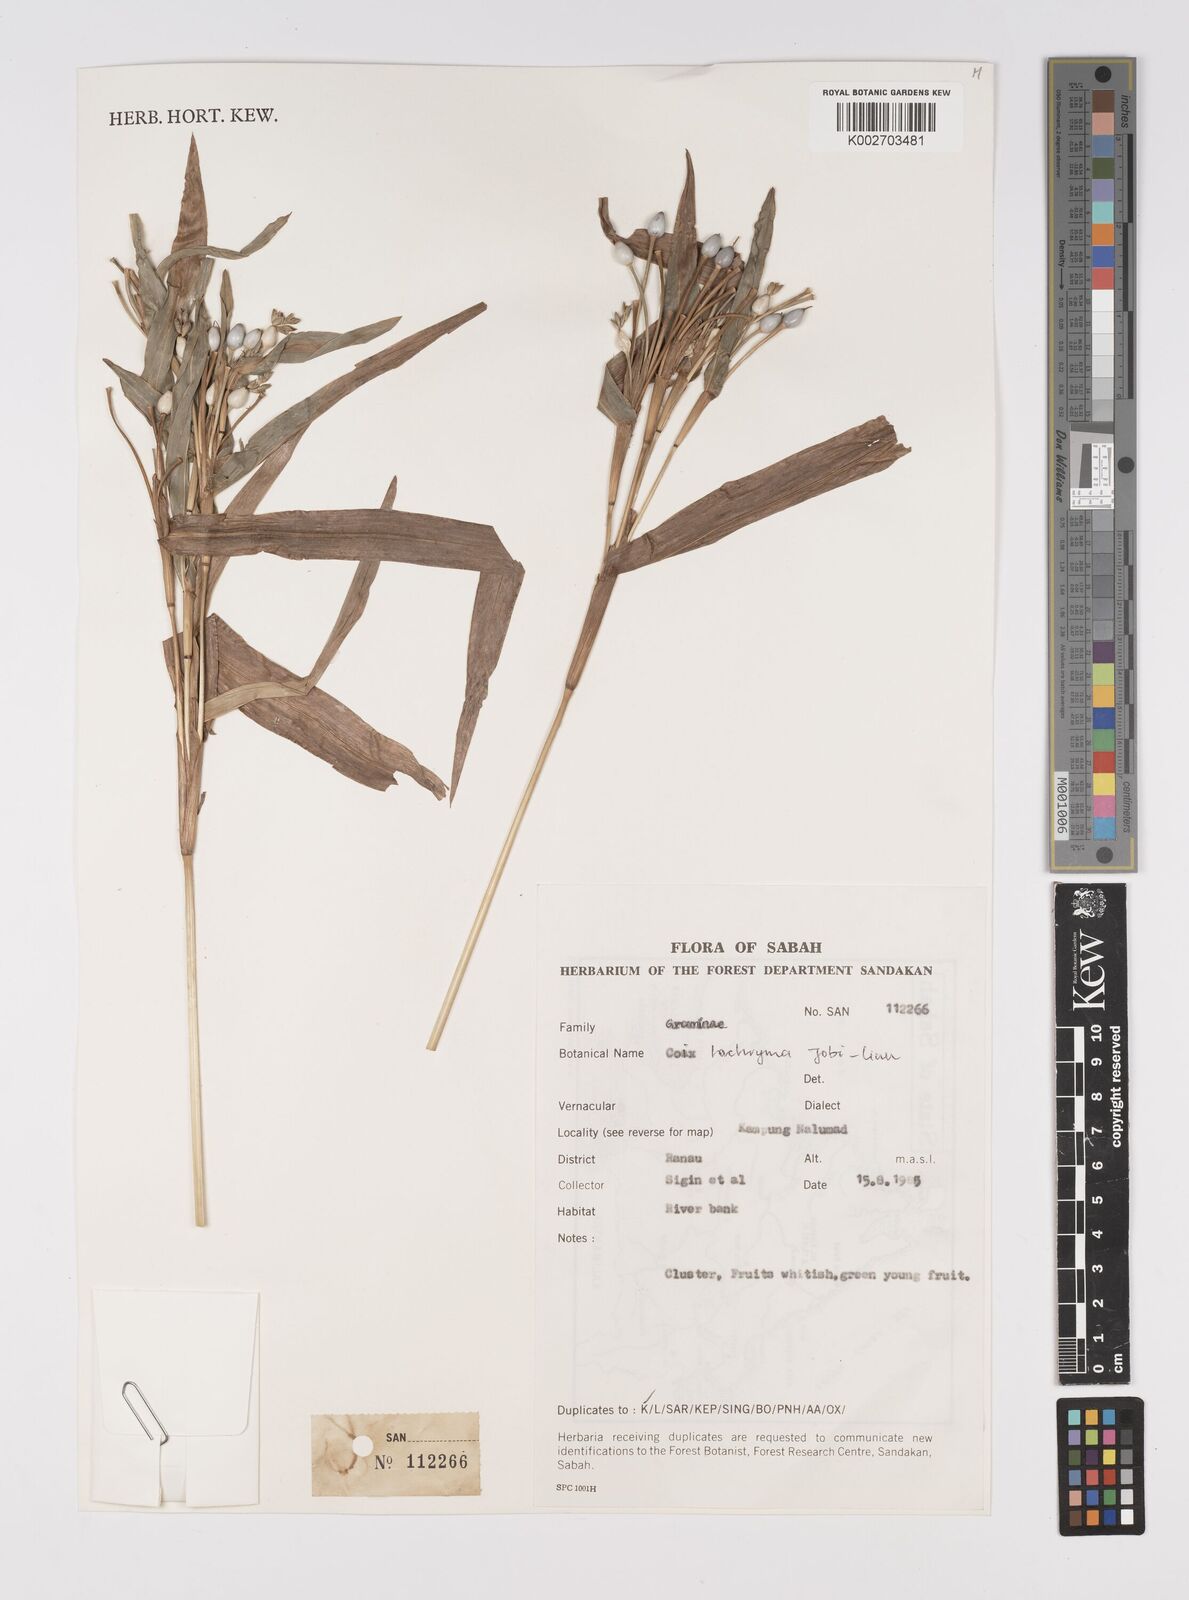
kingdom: Plantae
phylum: Tracheophyta
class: Liliopsida
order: Poales
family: Poaceae
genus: Coix
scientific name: Coix lacryma-jobi
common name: Job's tears
